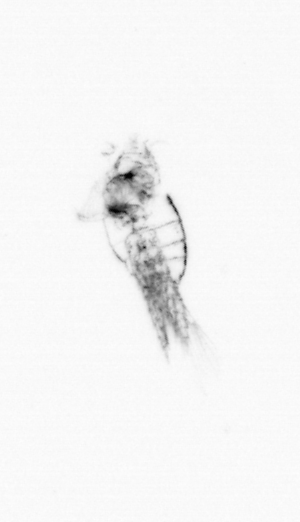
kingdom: Animalia
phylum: Arthropoda
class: Maxillopoda
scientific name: Maxillopoda
